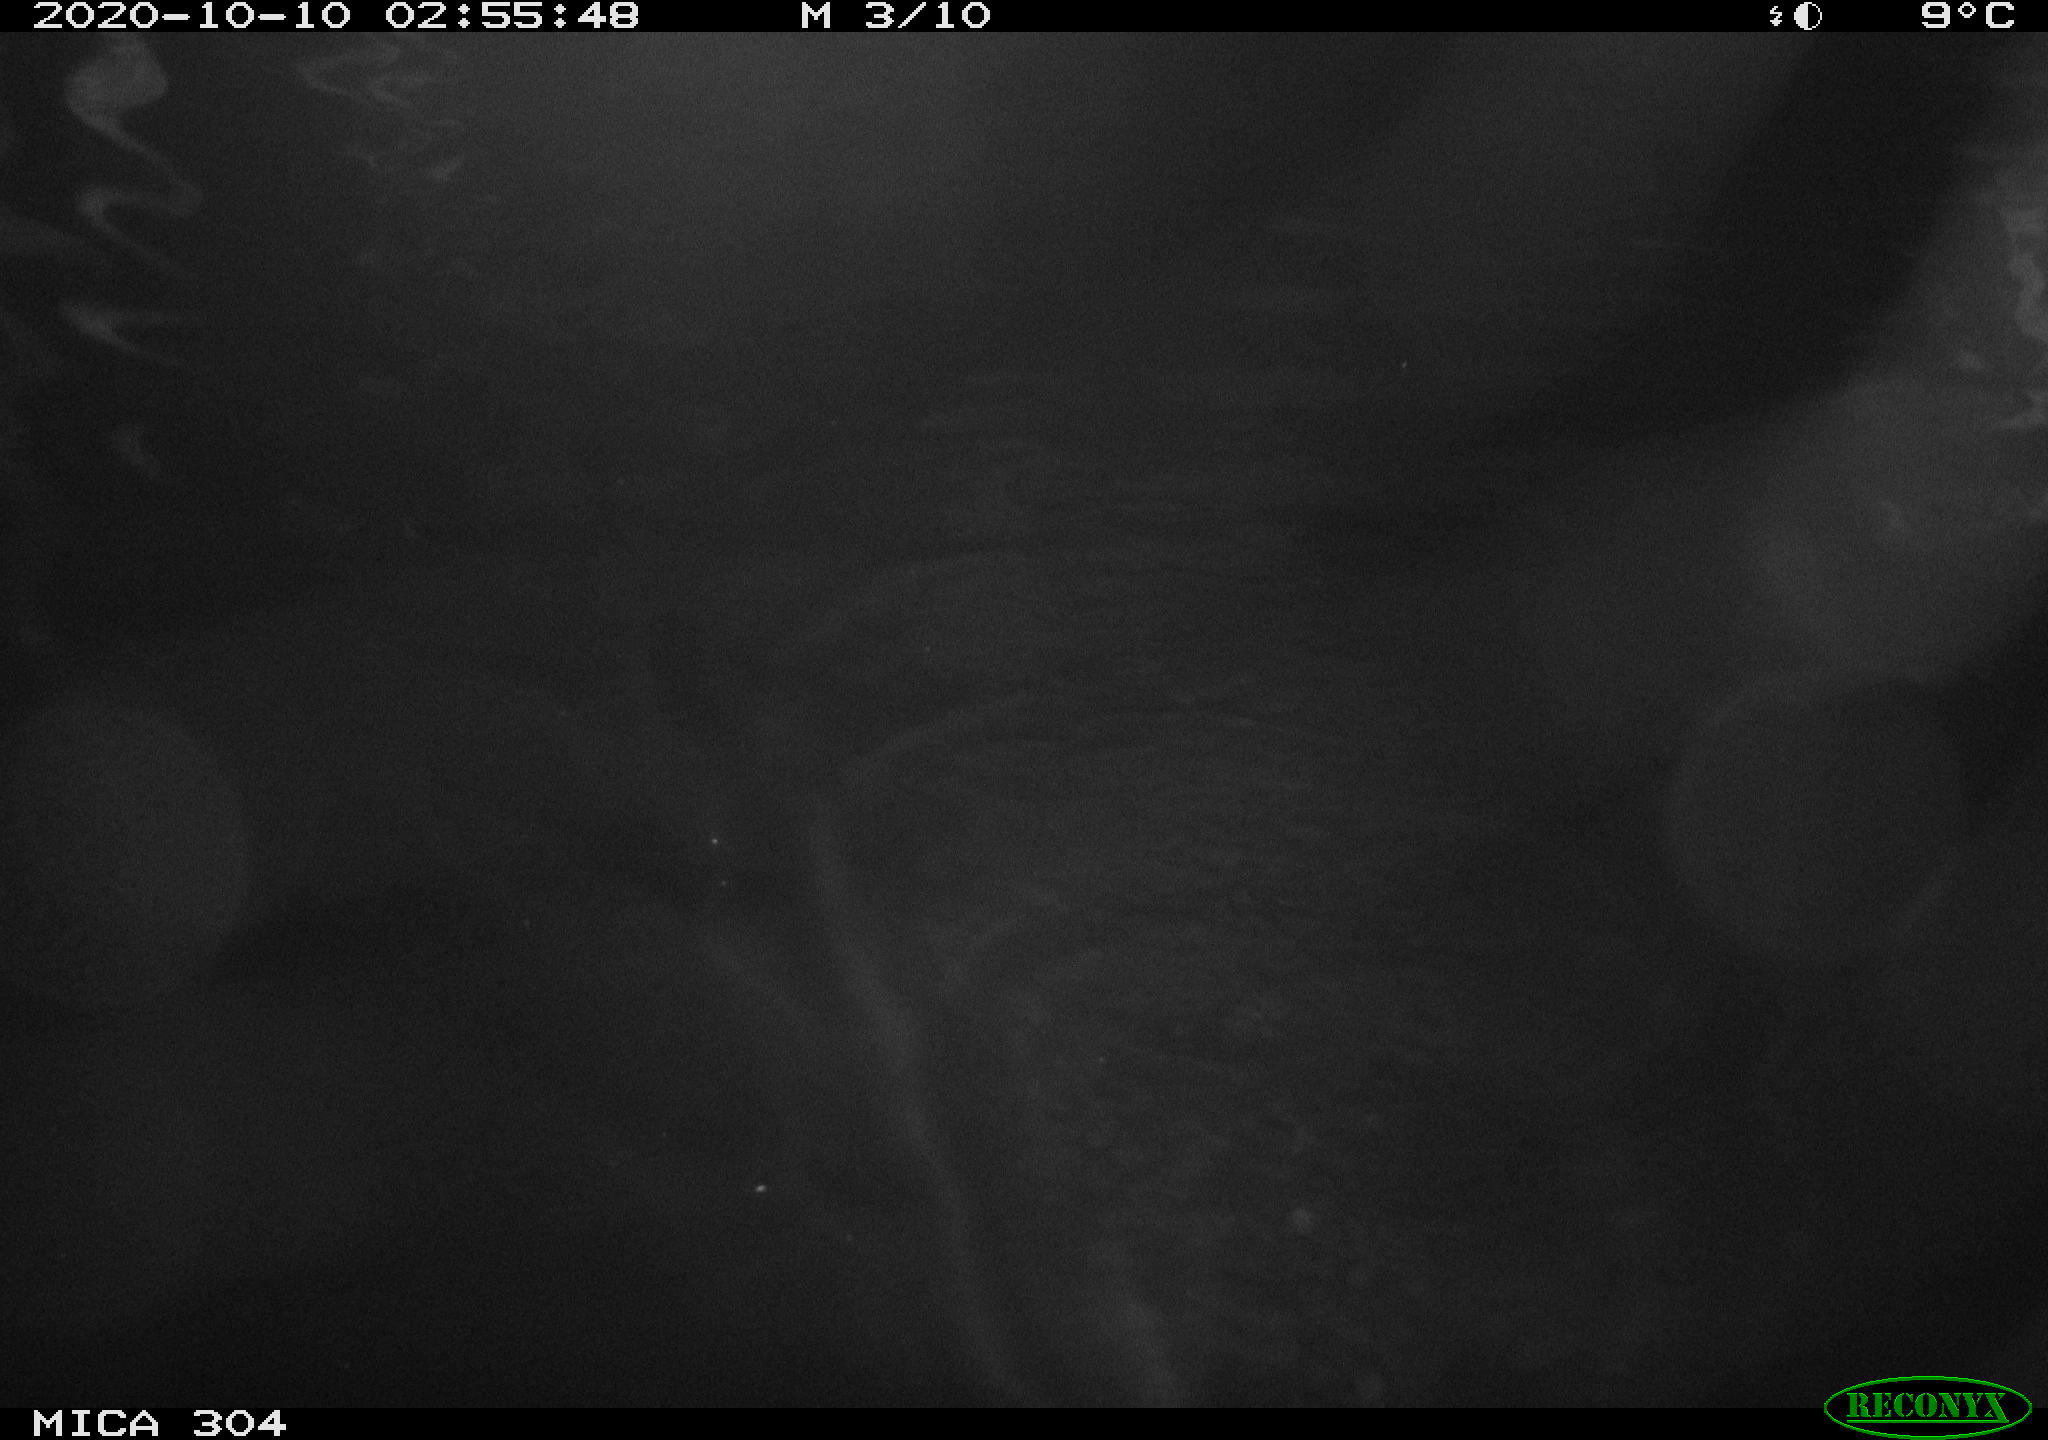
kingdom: Animalia
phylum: Chordata
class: Mammalia
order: Rodentia
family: Cricetidae
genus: Ondatra
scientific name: Ondatra zibethicus
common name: Muskrat
